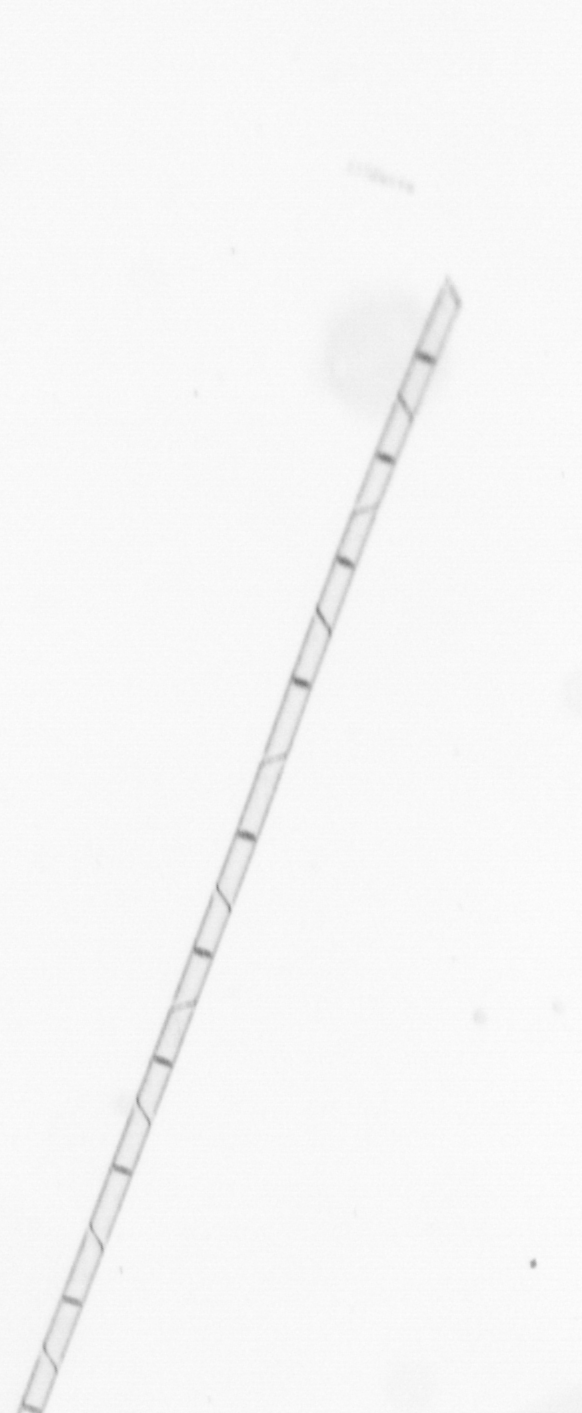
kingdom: Chromista
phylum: Ochrophyta
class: Bacillariophyceae
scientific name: Bacillariophyceae
